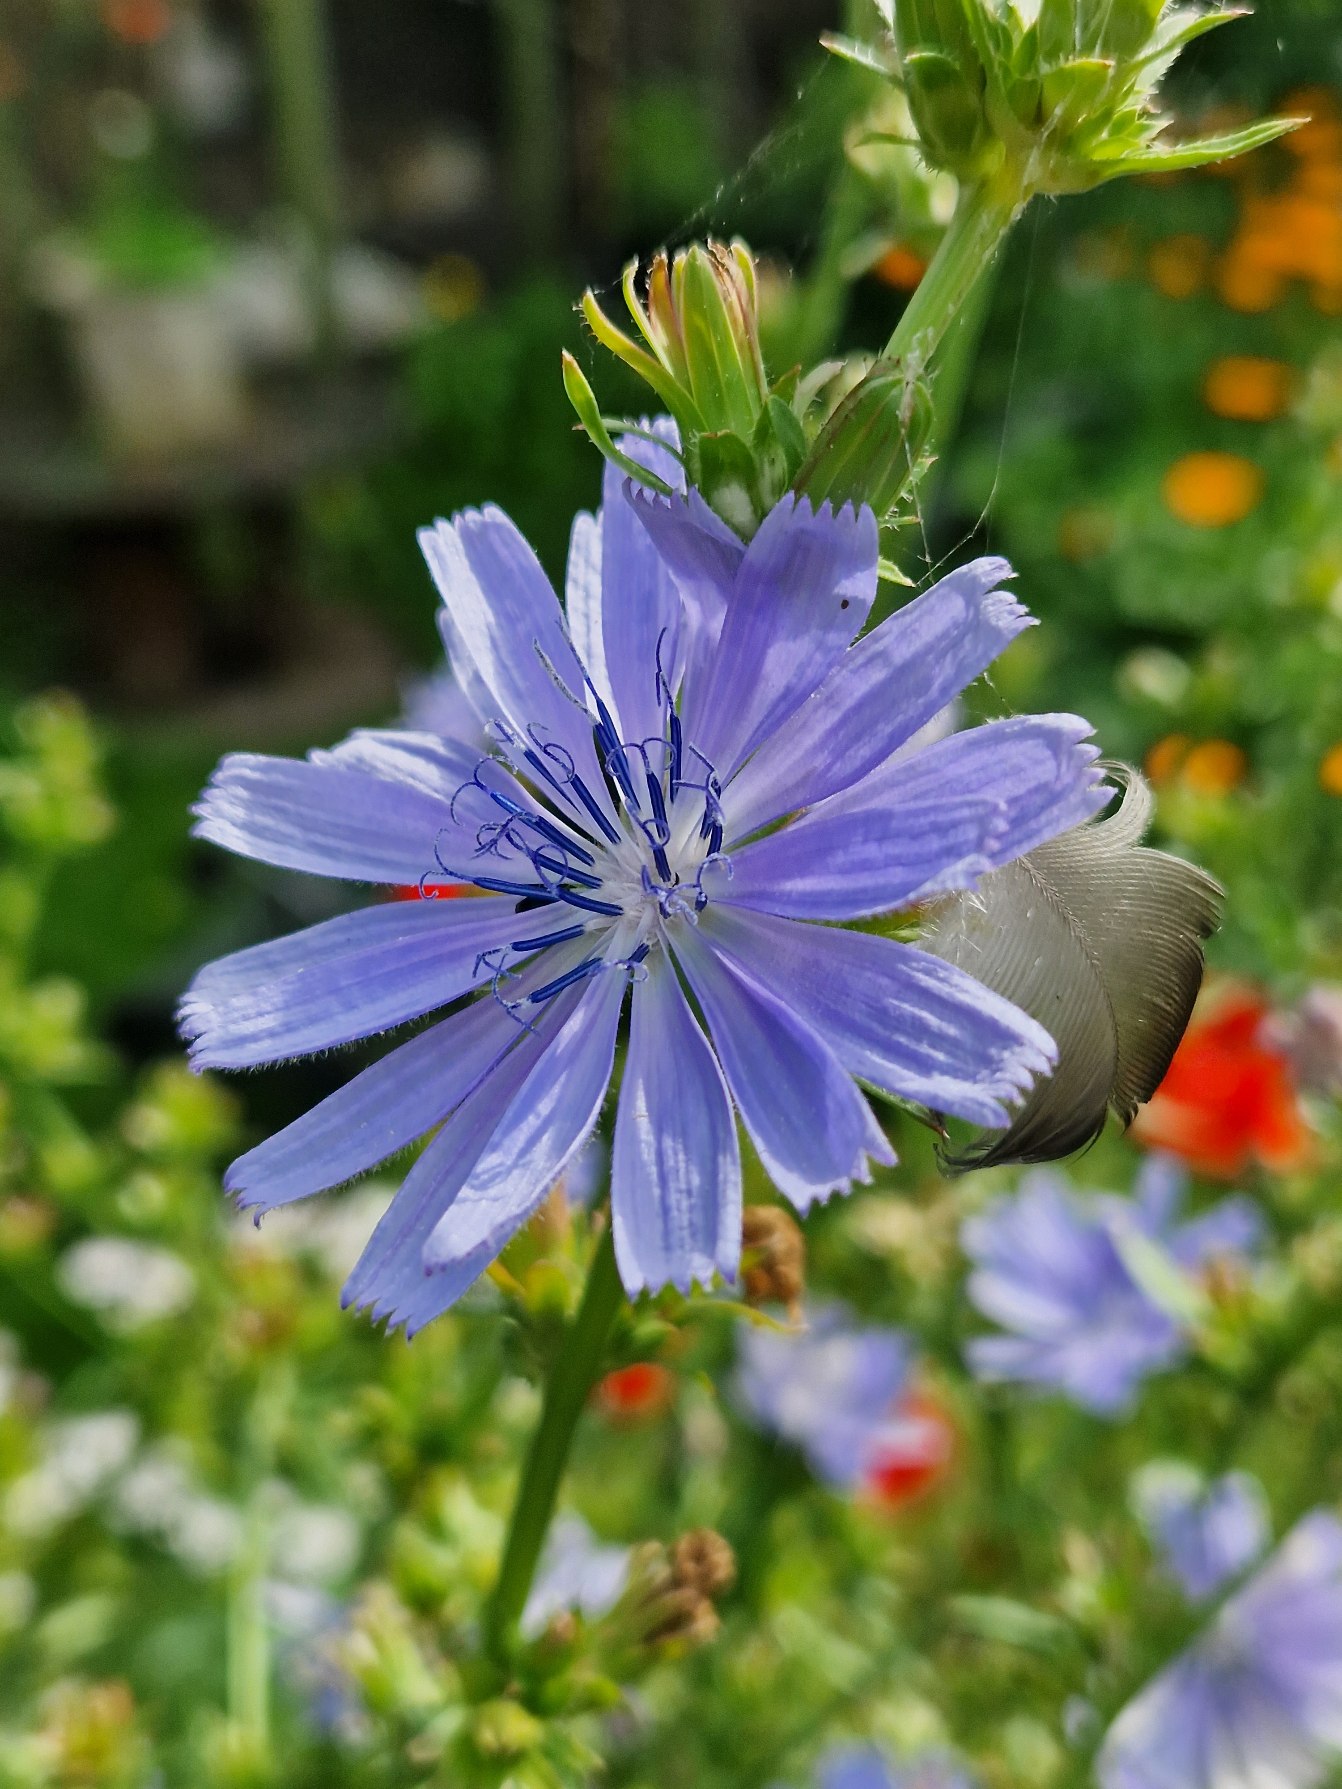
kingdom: Plantae
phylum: Tracheophyta
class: Magnoliopsida
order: Asterales
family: Asteraceae
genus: Cichorium
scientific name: Cichorium intybus
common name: Cikorie
